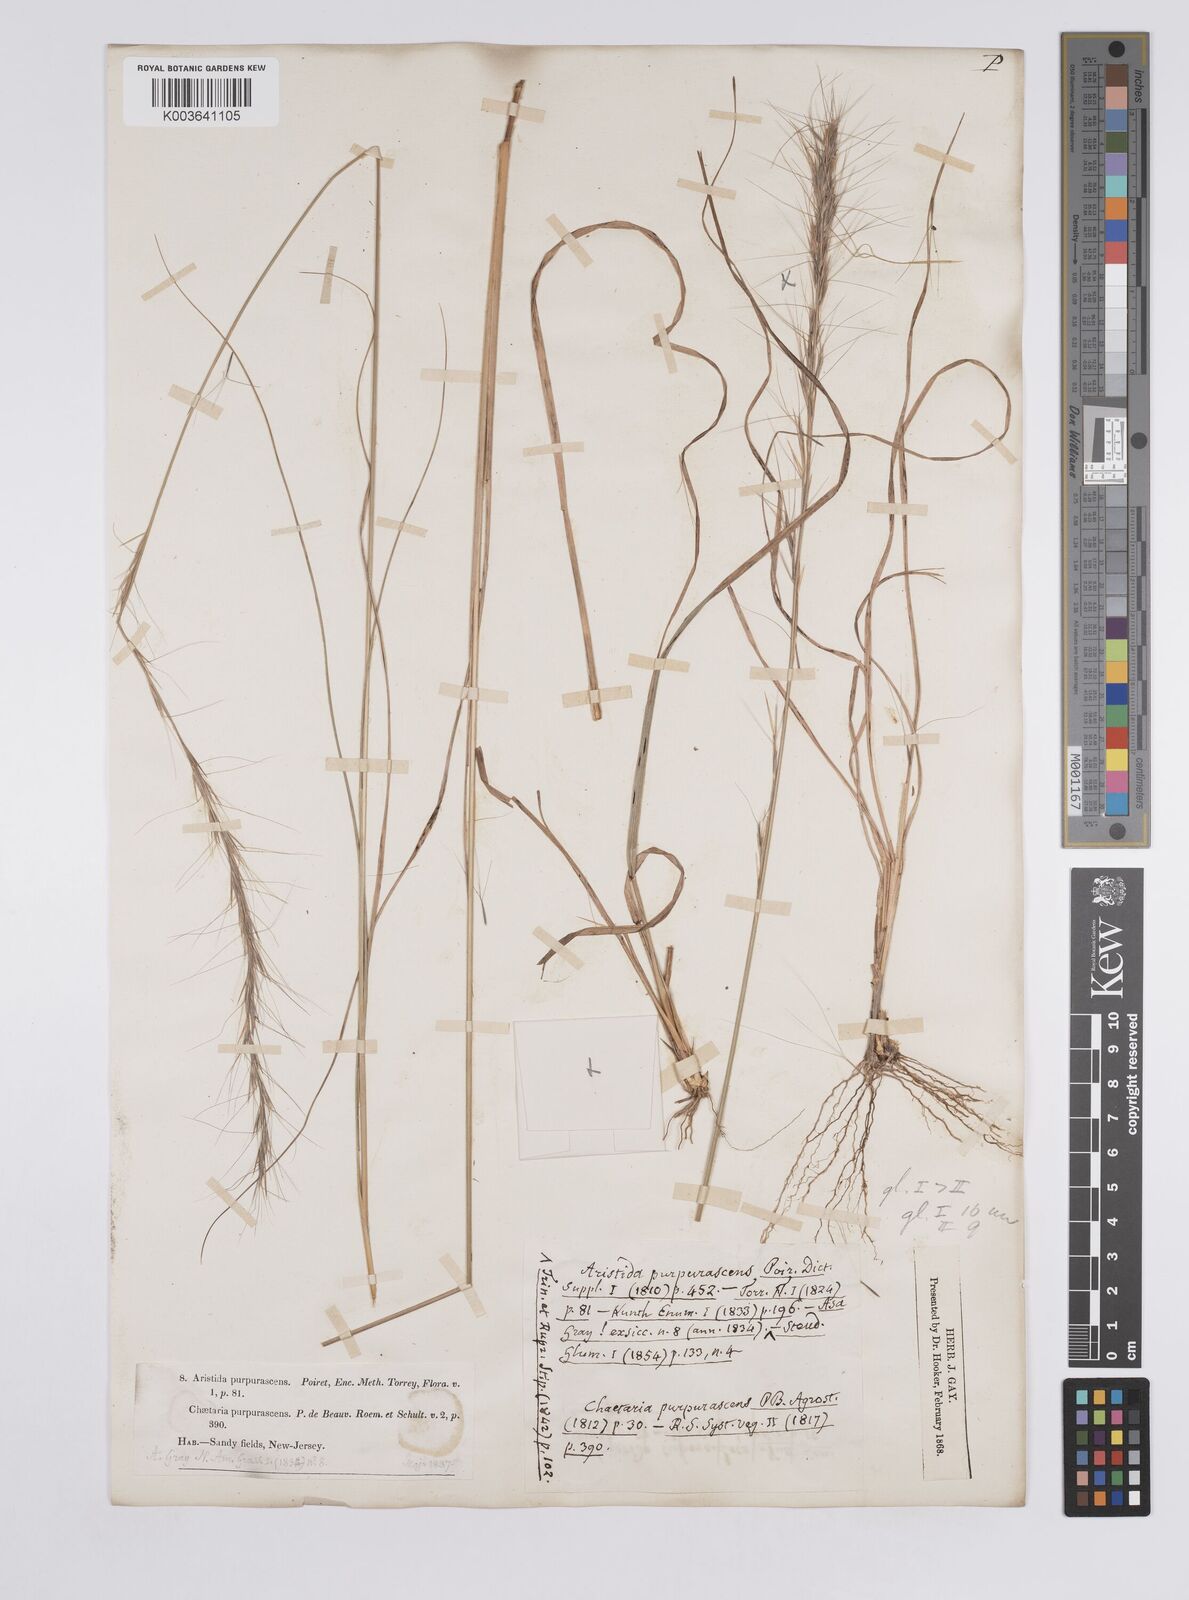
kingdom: Plantae
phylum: Tracheophyta
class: Liliopsida
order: Poales
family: Poaceae
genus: Aristida
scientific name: Aristida purpurascens
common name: Arrow-feather
